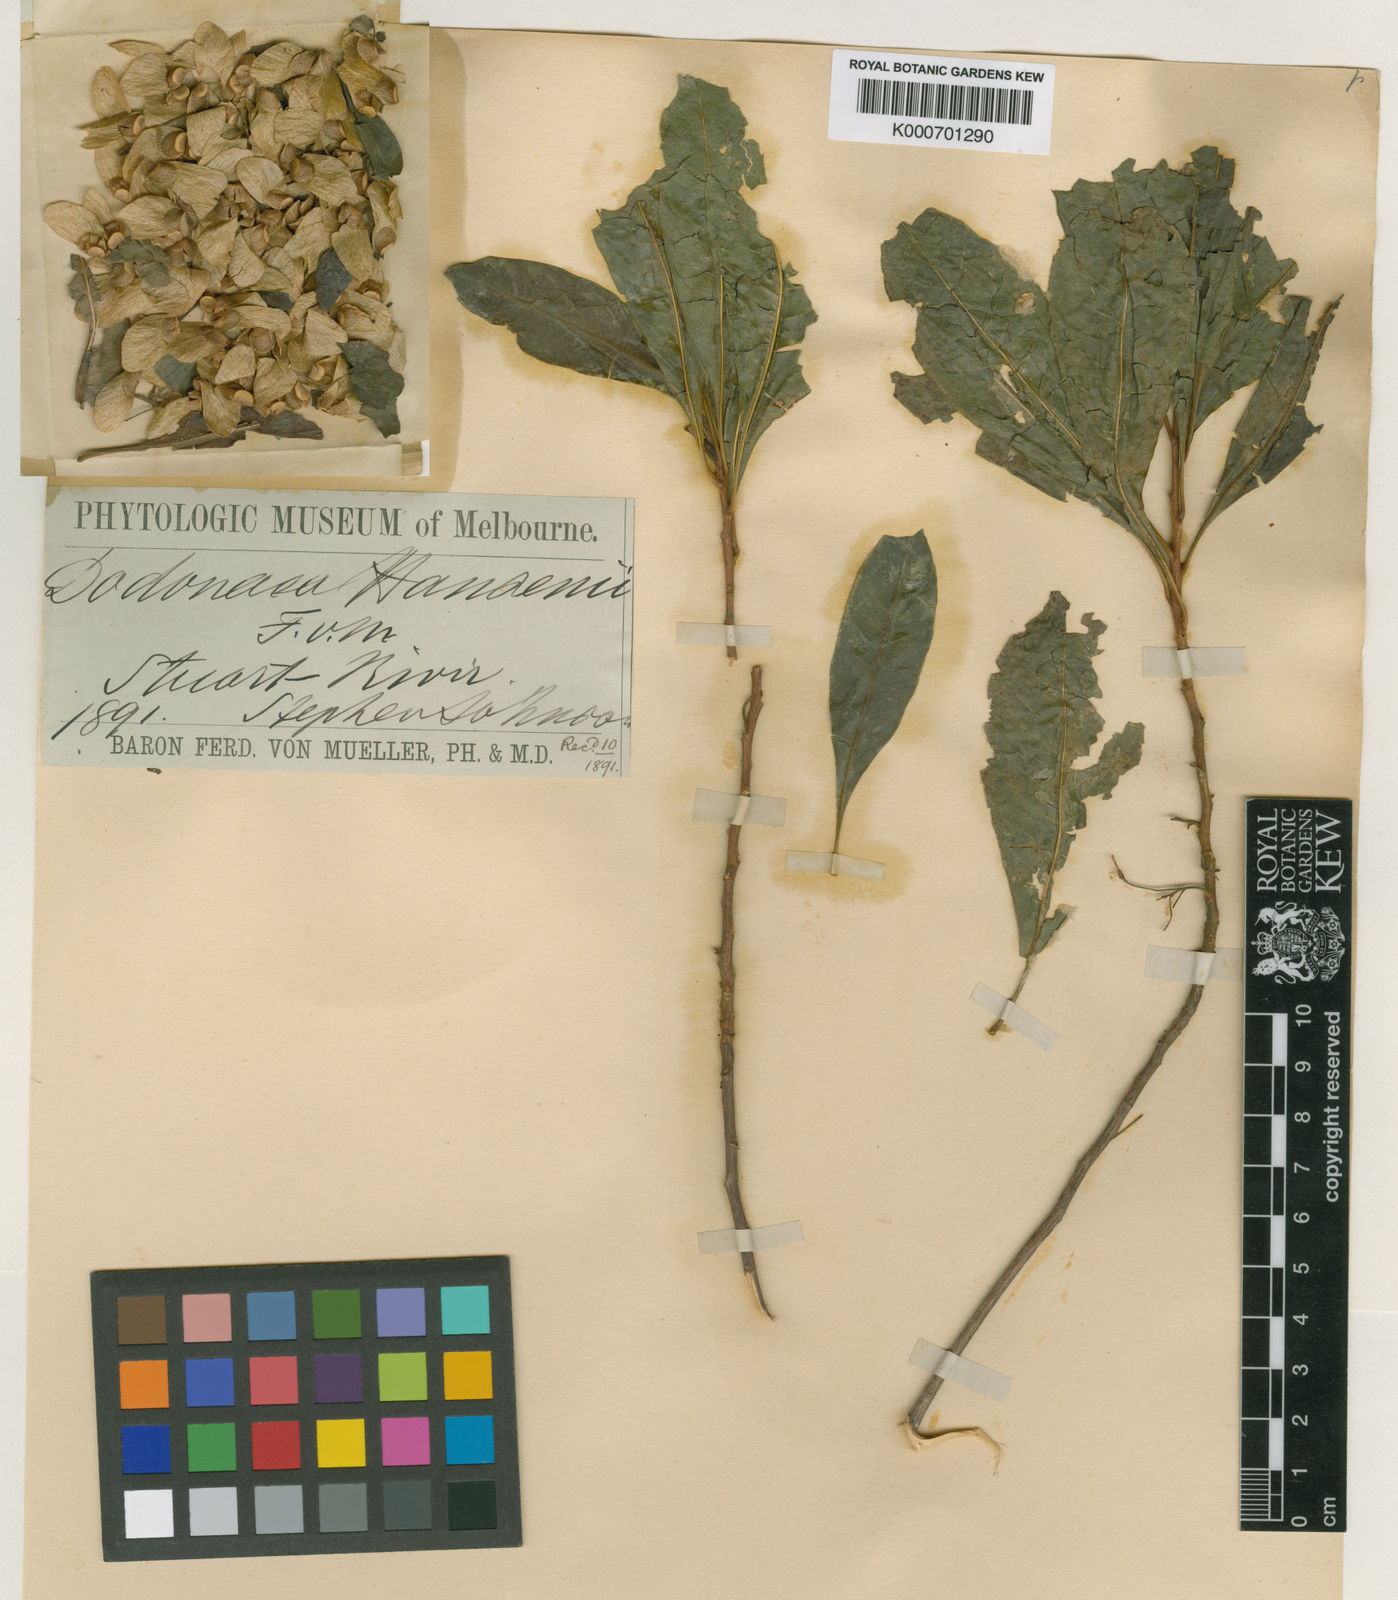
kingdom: Plantae
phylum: Tracheophyta
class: Magnoliopsida
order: Sapindales
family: Sapindaceae
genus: Dodonaea
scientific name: Dodonaea platyptera
